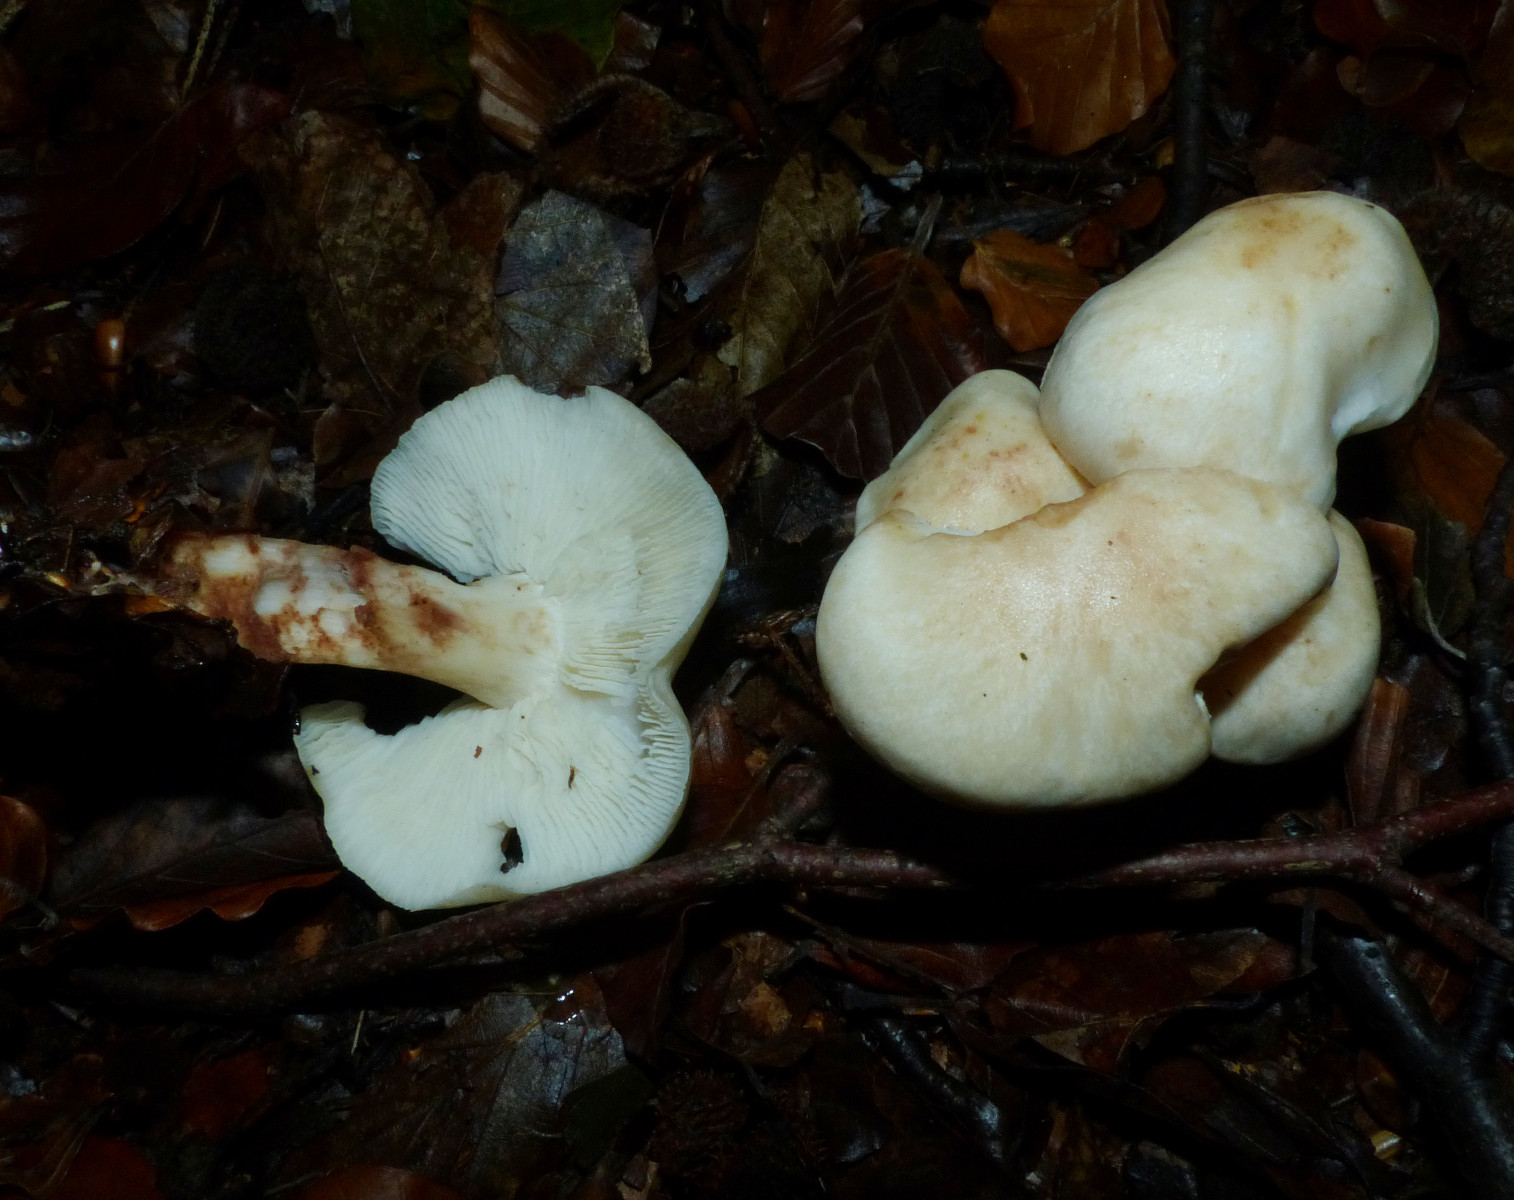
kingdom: Fungi
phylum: Basidiomycota
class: Agaricomycetes
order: Agaricales
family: Omphalotaceae
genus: Rhodocollybia
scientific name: Rhodocollybia maculata
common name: plettet fladhat
